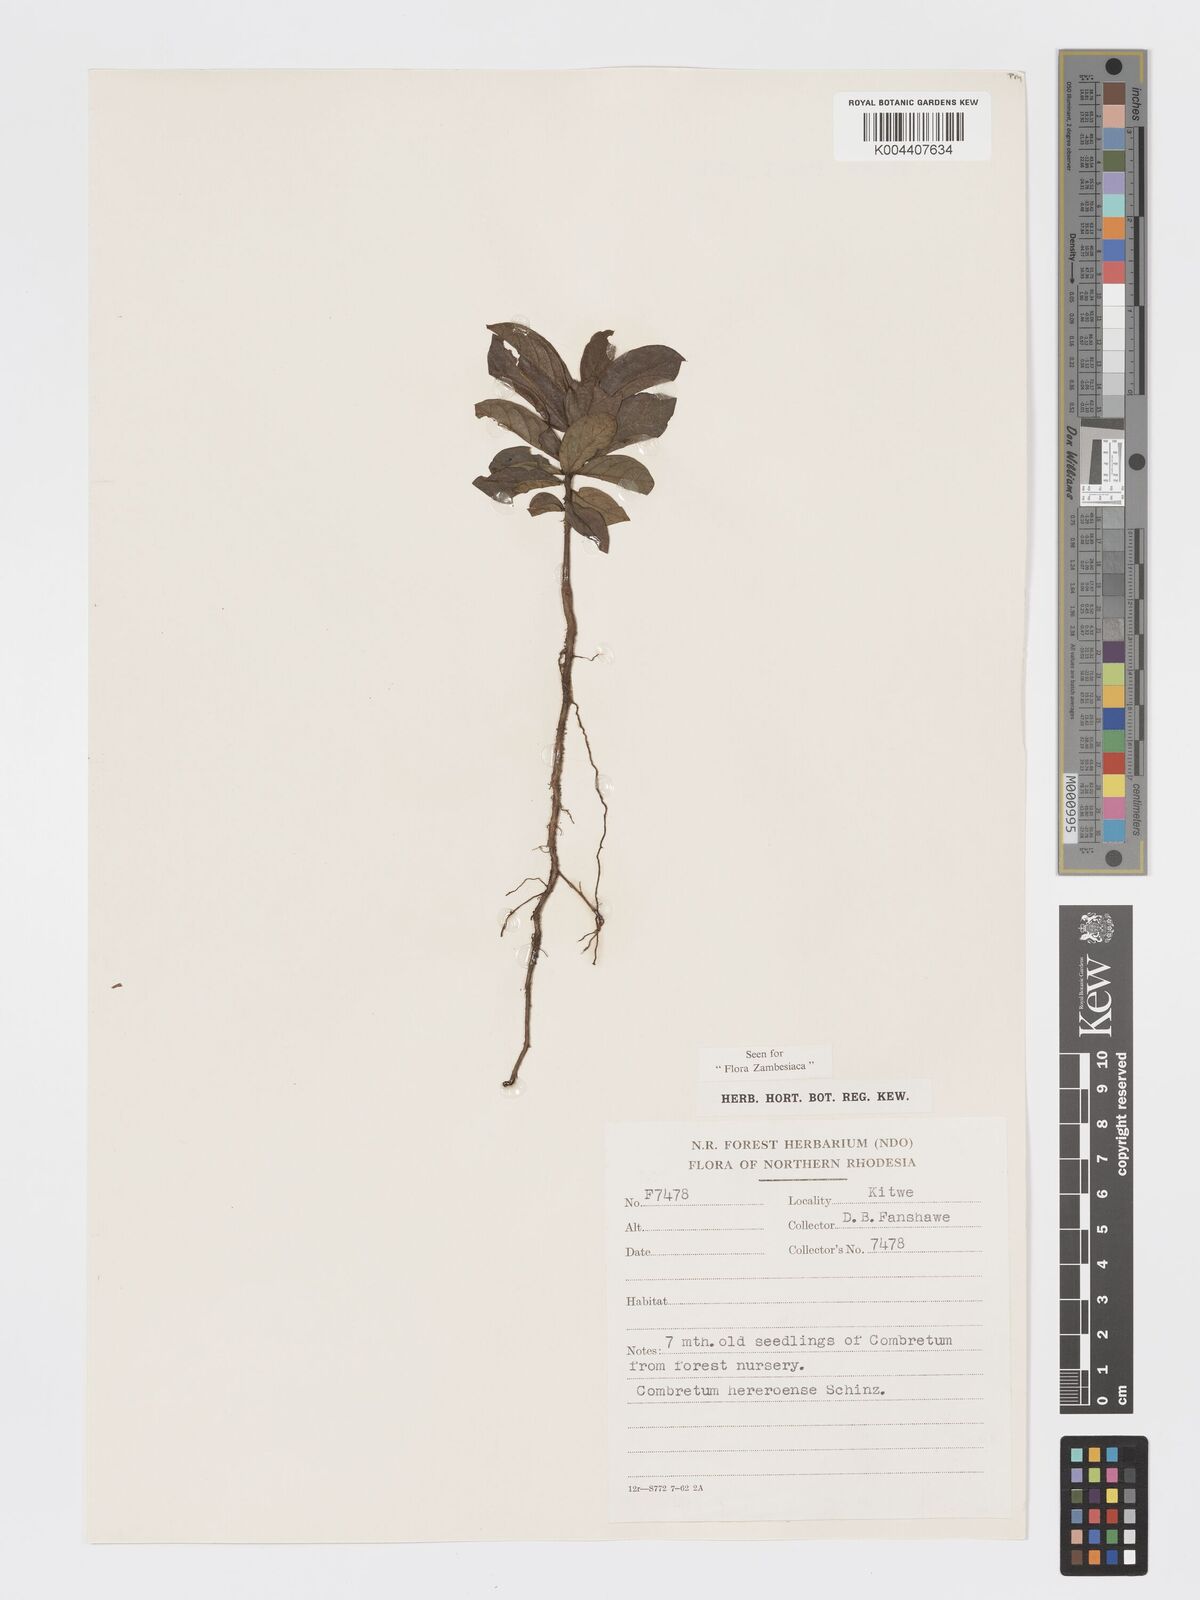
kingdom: Plantae
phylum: Tracheophyta
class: Magnoliopsida
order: Myrtales
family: Combretaceae
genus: Combretum
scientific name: Combretum hereroense
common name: Russet bushwillow
